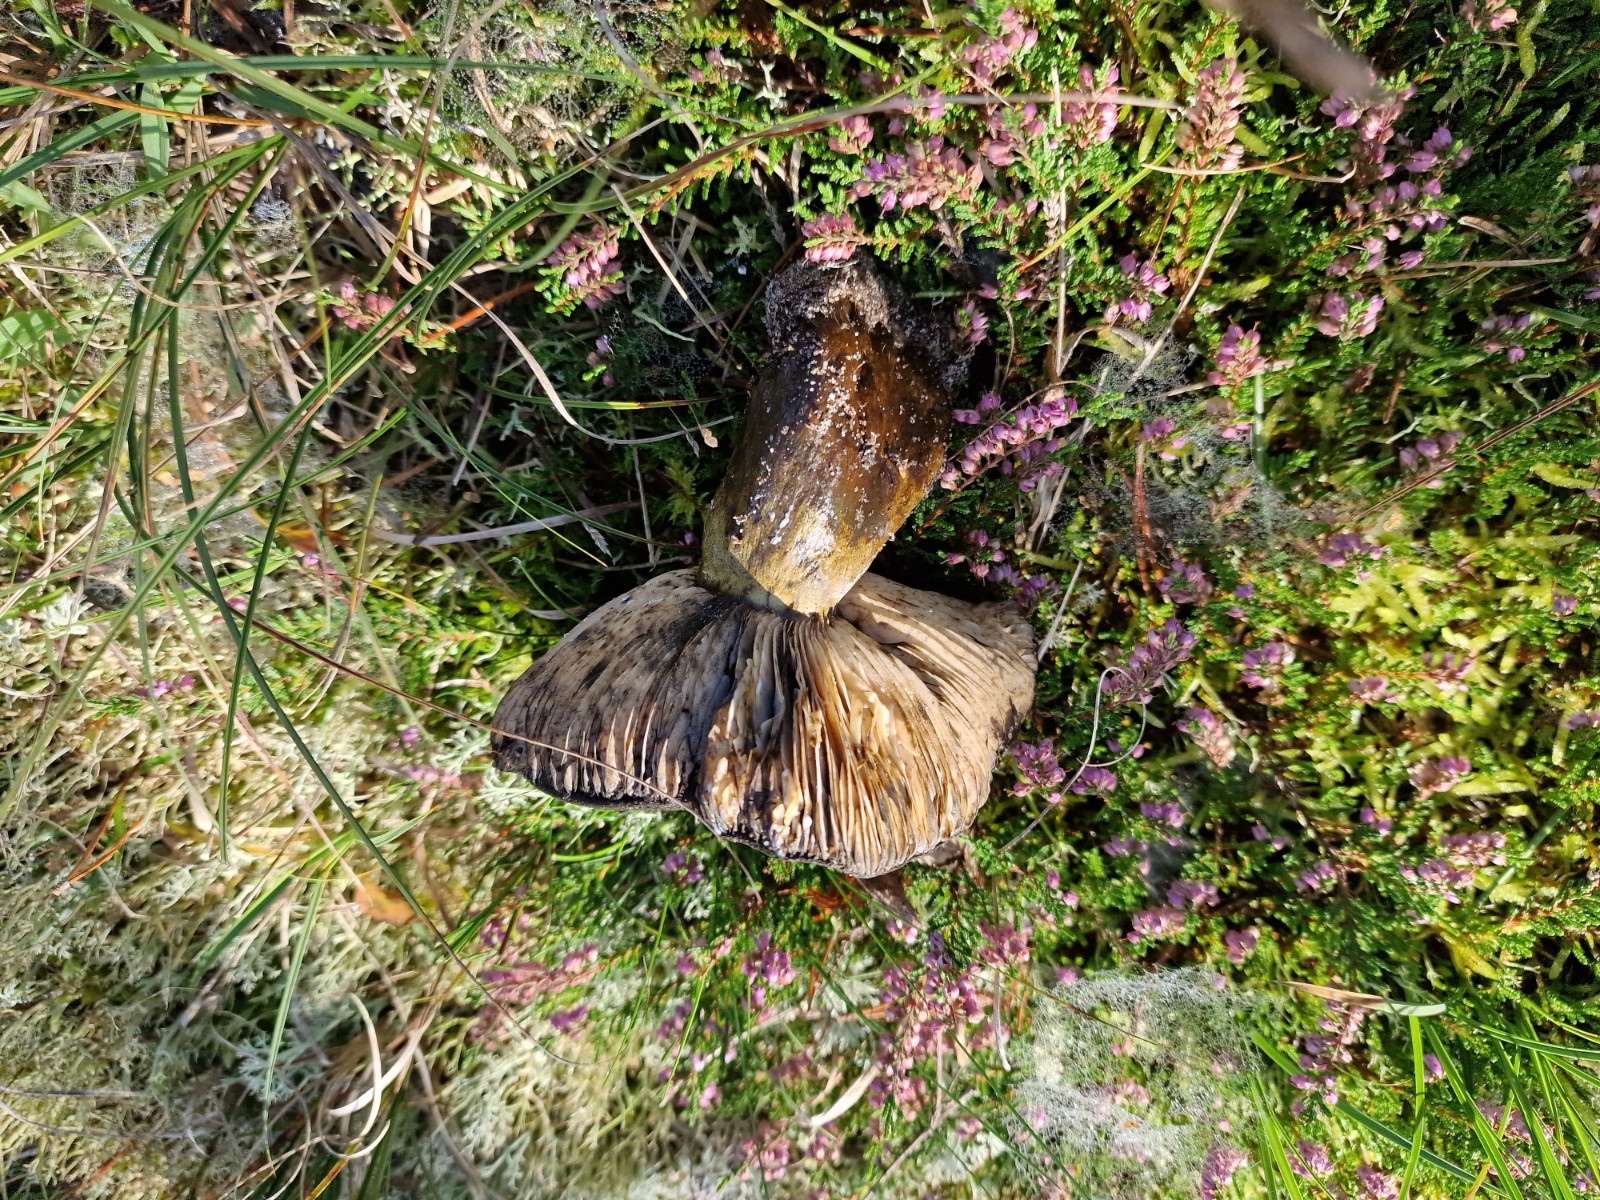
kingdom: Fungi
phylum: Basidiomycota
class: Agaricomycetes
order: Russulales
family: Russulaceae
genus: Lactarius
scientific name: Lactarius necator
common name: manddraber-mælkehat
